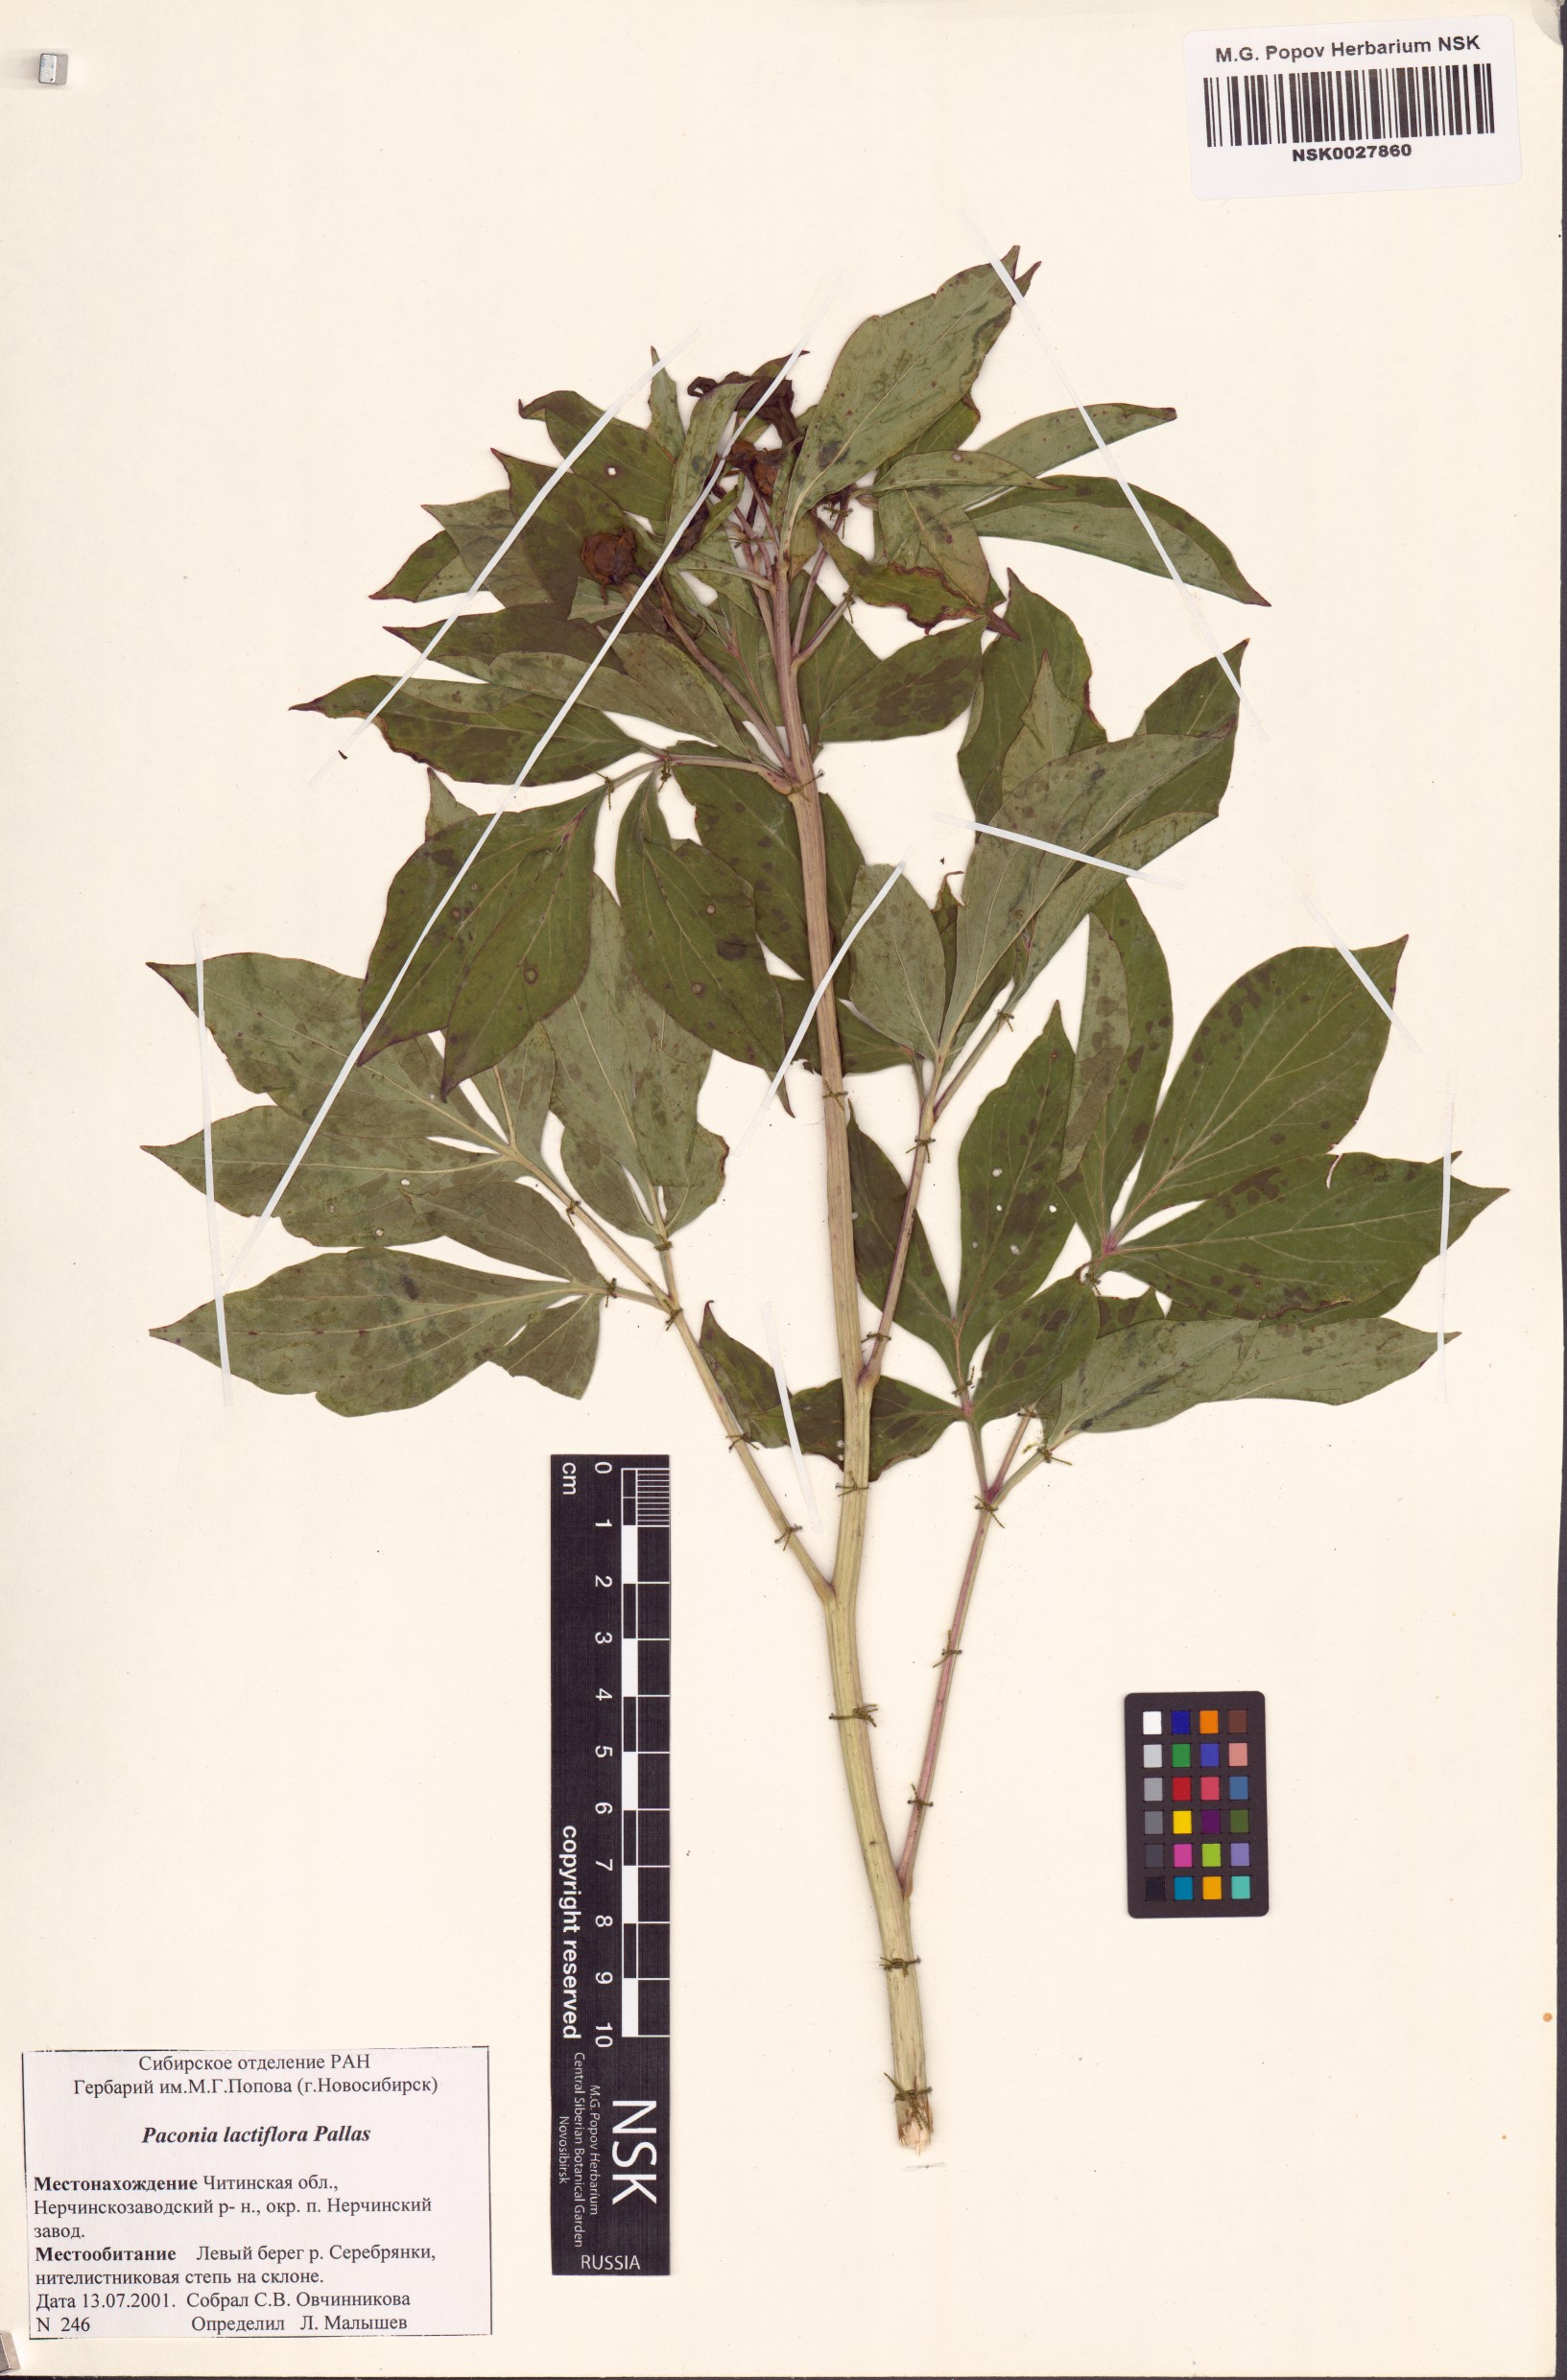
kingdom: Plantae
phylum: Tracheophyta
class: Magnoliopsida
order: Saxifragales
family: Paeoniaceae
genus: Paeonia
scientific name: Paeonia lactiflora
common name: Chinese peony
